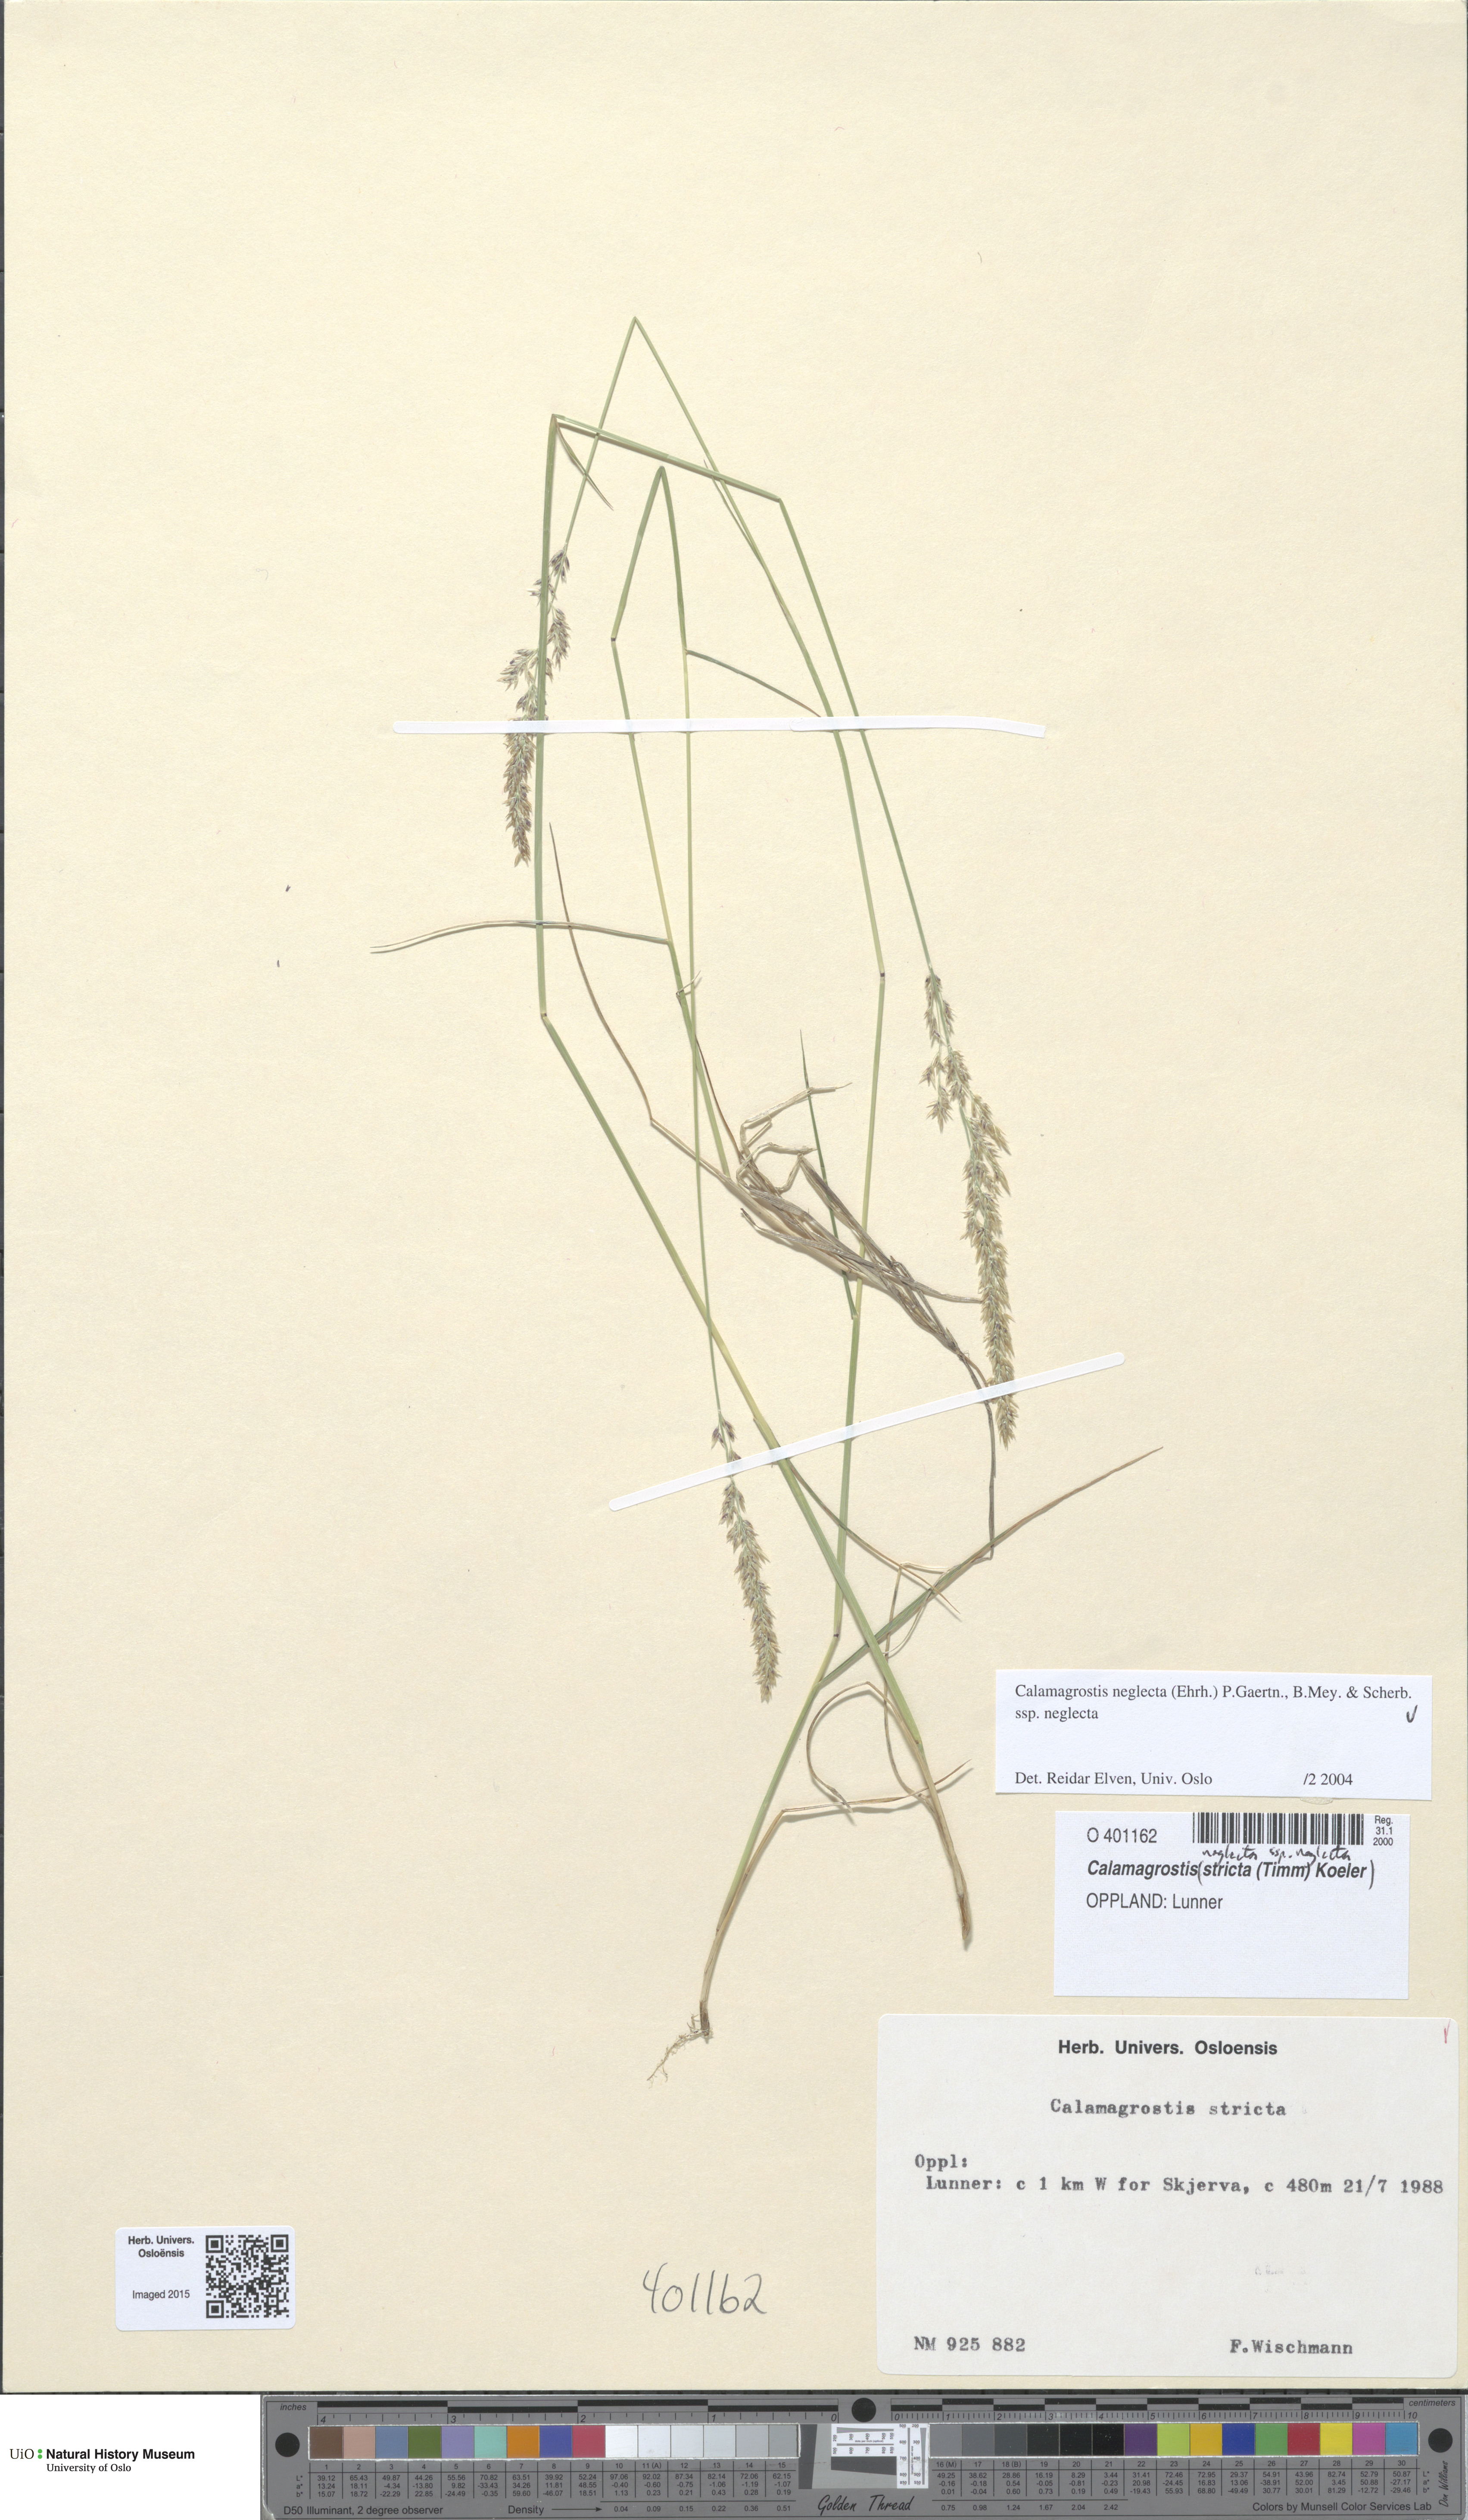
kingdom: Plantae
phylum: Tracheophyta
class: Liliopsida
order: Poales
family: Poaceae
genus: Achnatherum
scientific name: Achnatherum calamagrostis
